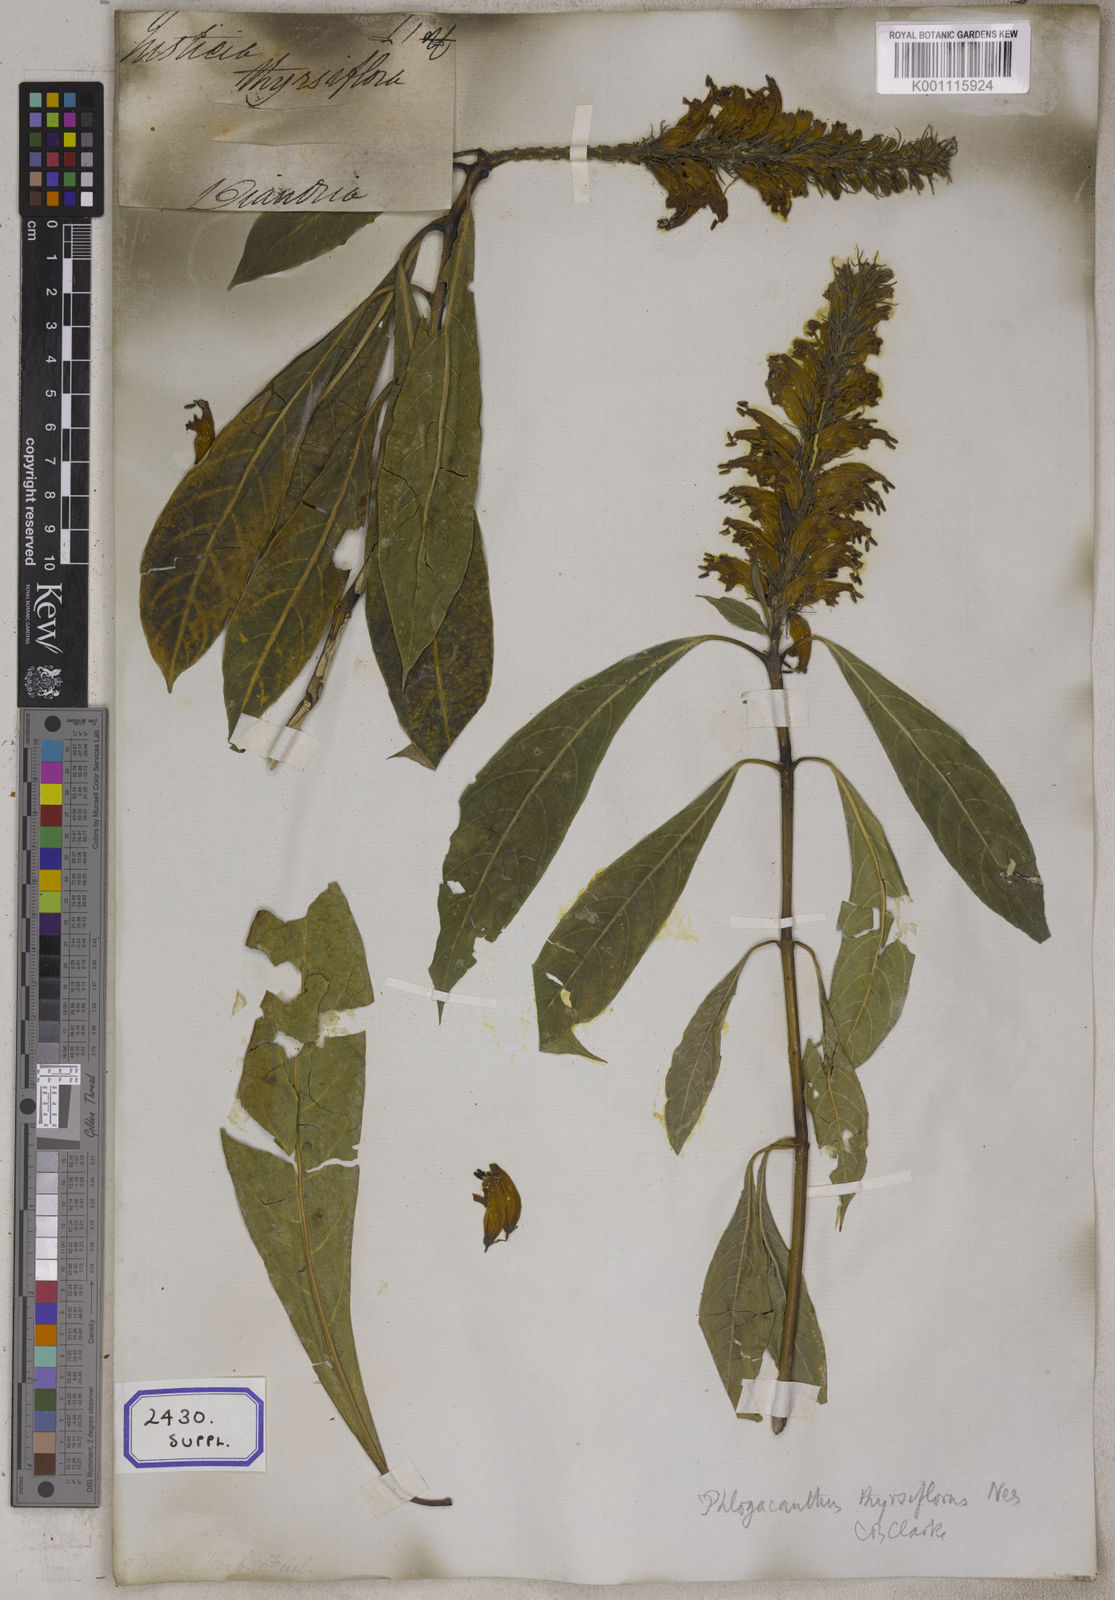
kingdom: Plantae
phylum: Tracheophyta
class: Magnoliopsida
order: Lamiales
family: Acanthaceae
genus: Justicia
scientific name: Justicia
